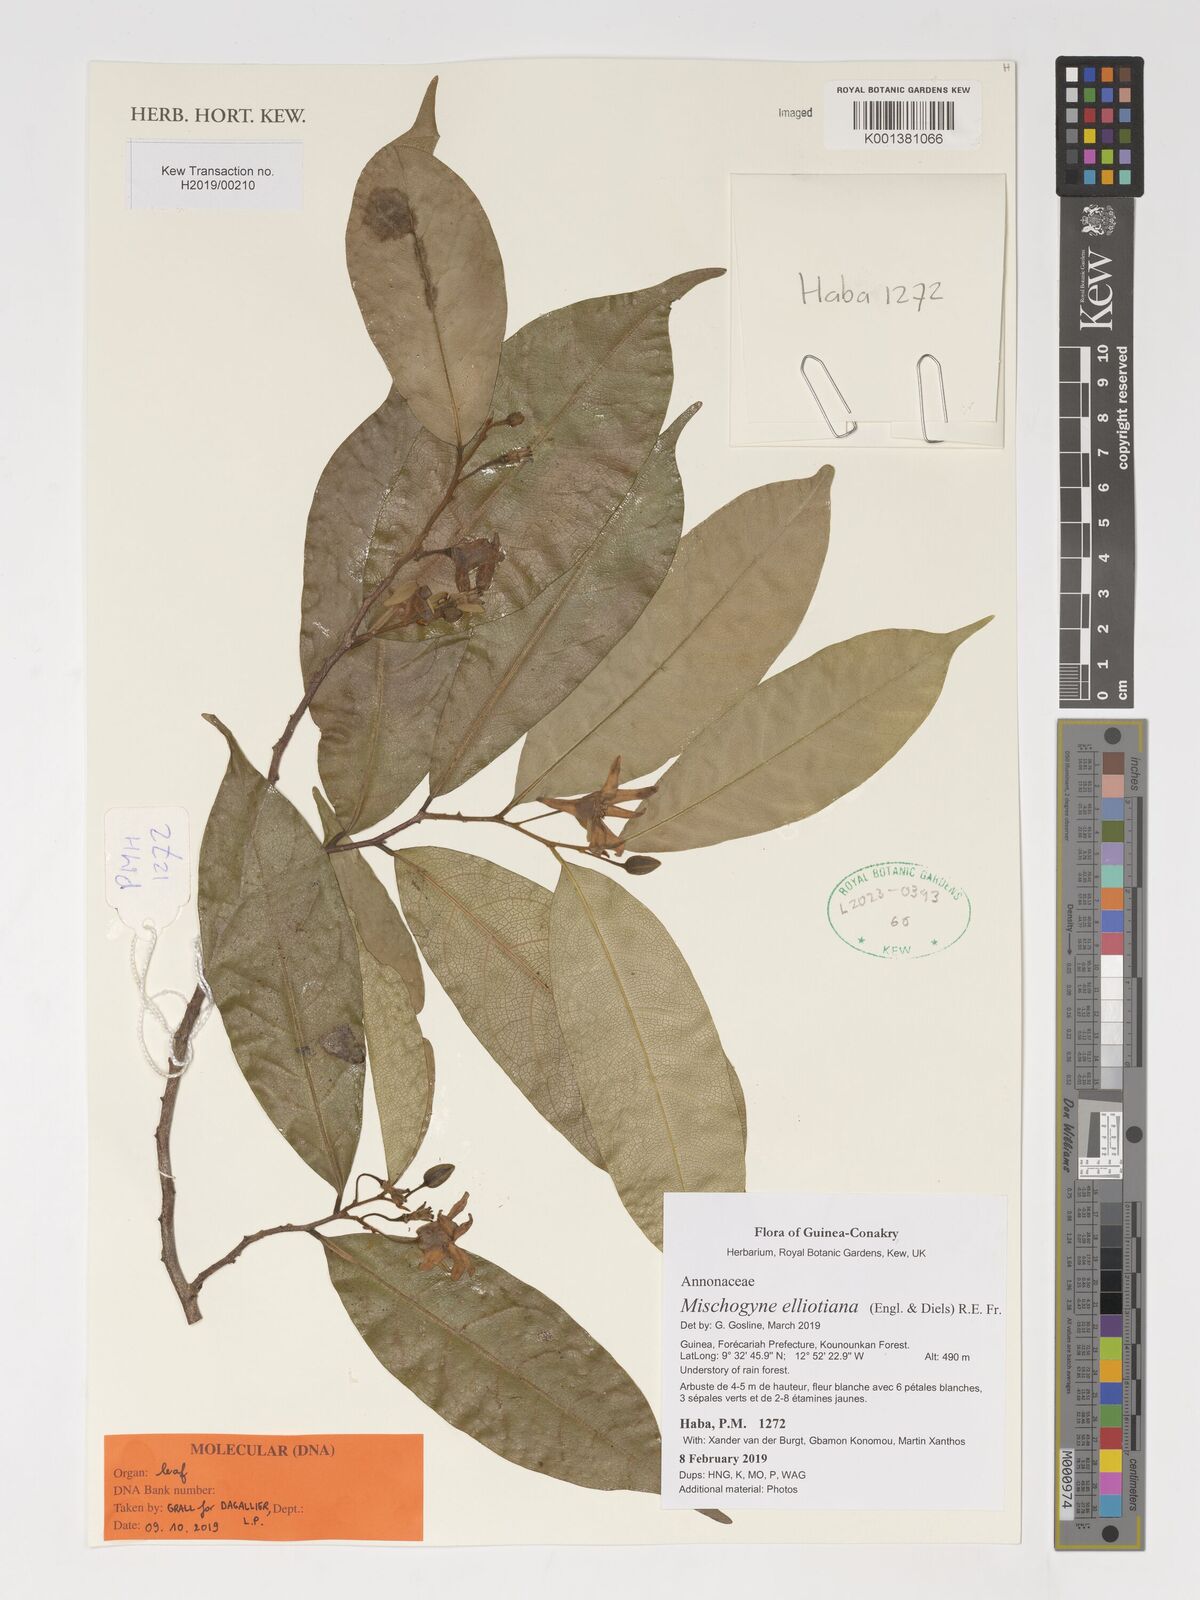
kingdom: Plantae
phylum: Tracheophyta
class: Magnoliopsida
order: Magnoliales
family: Annonaceae
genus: Mischogyne
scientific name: Mischogyne elliotianum
